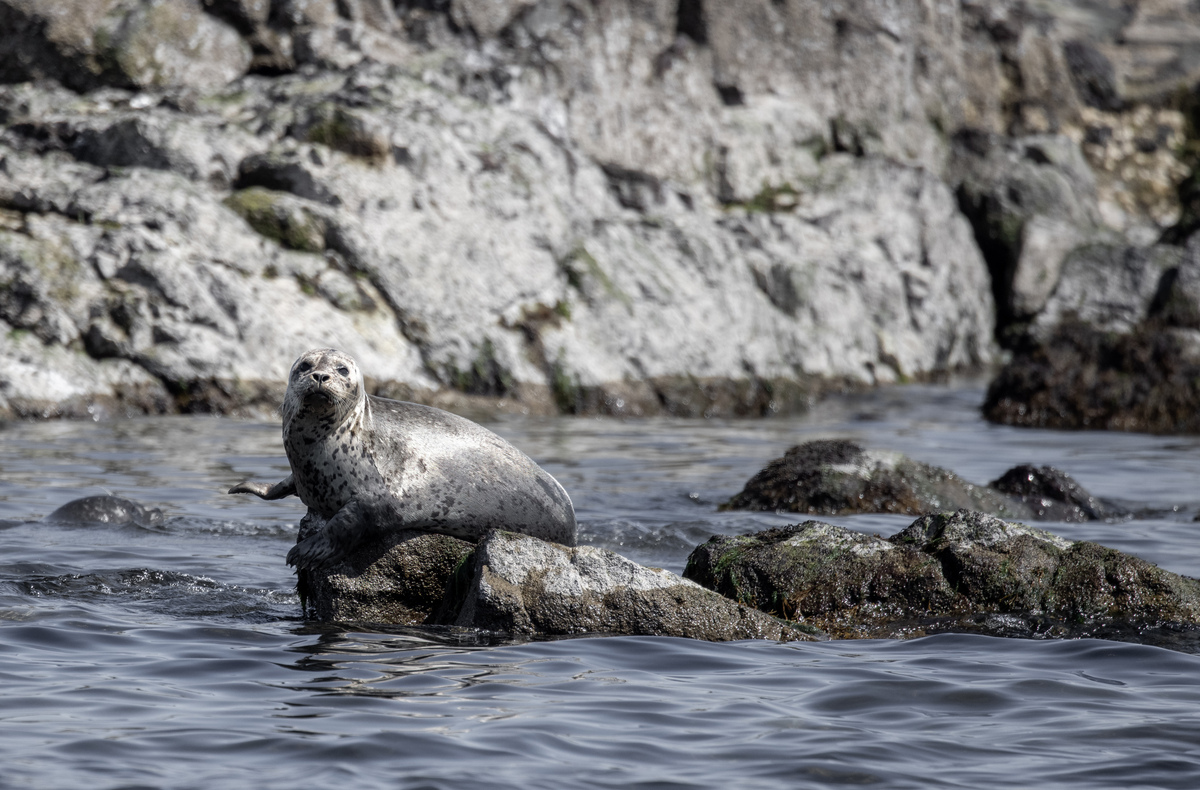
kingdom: Animalia
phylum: Chordata
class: Mammalia
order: Carnivora
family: Phocidae
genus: Phoca
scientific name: Phoca vitulina
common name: Harbor seal
